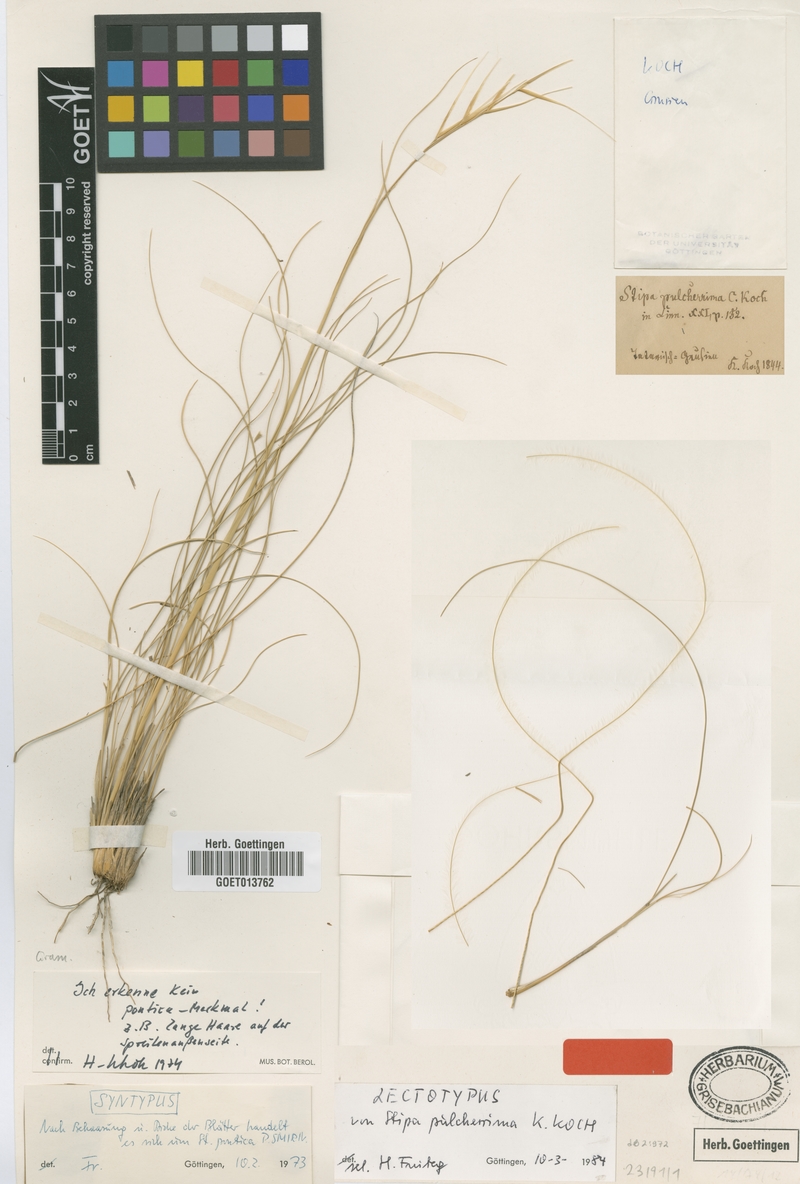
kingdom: Plantae
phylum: Tracheophyta
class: Liliopsida
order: Poales
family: Poaceae
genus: Stipa
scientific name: Stipa pulcherrima
